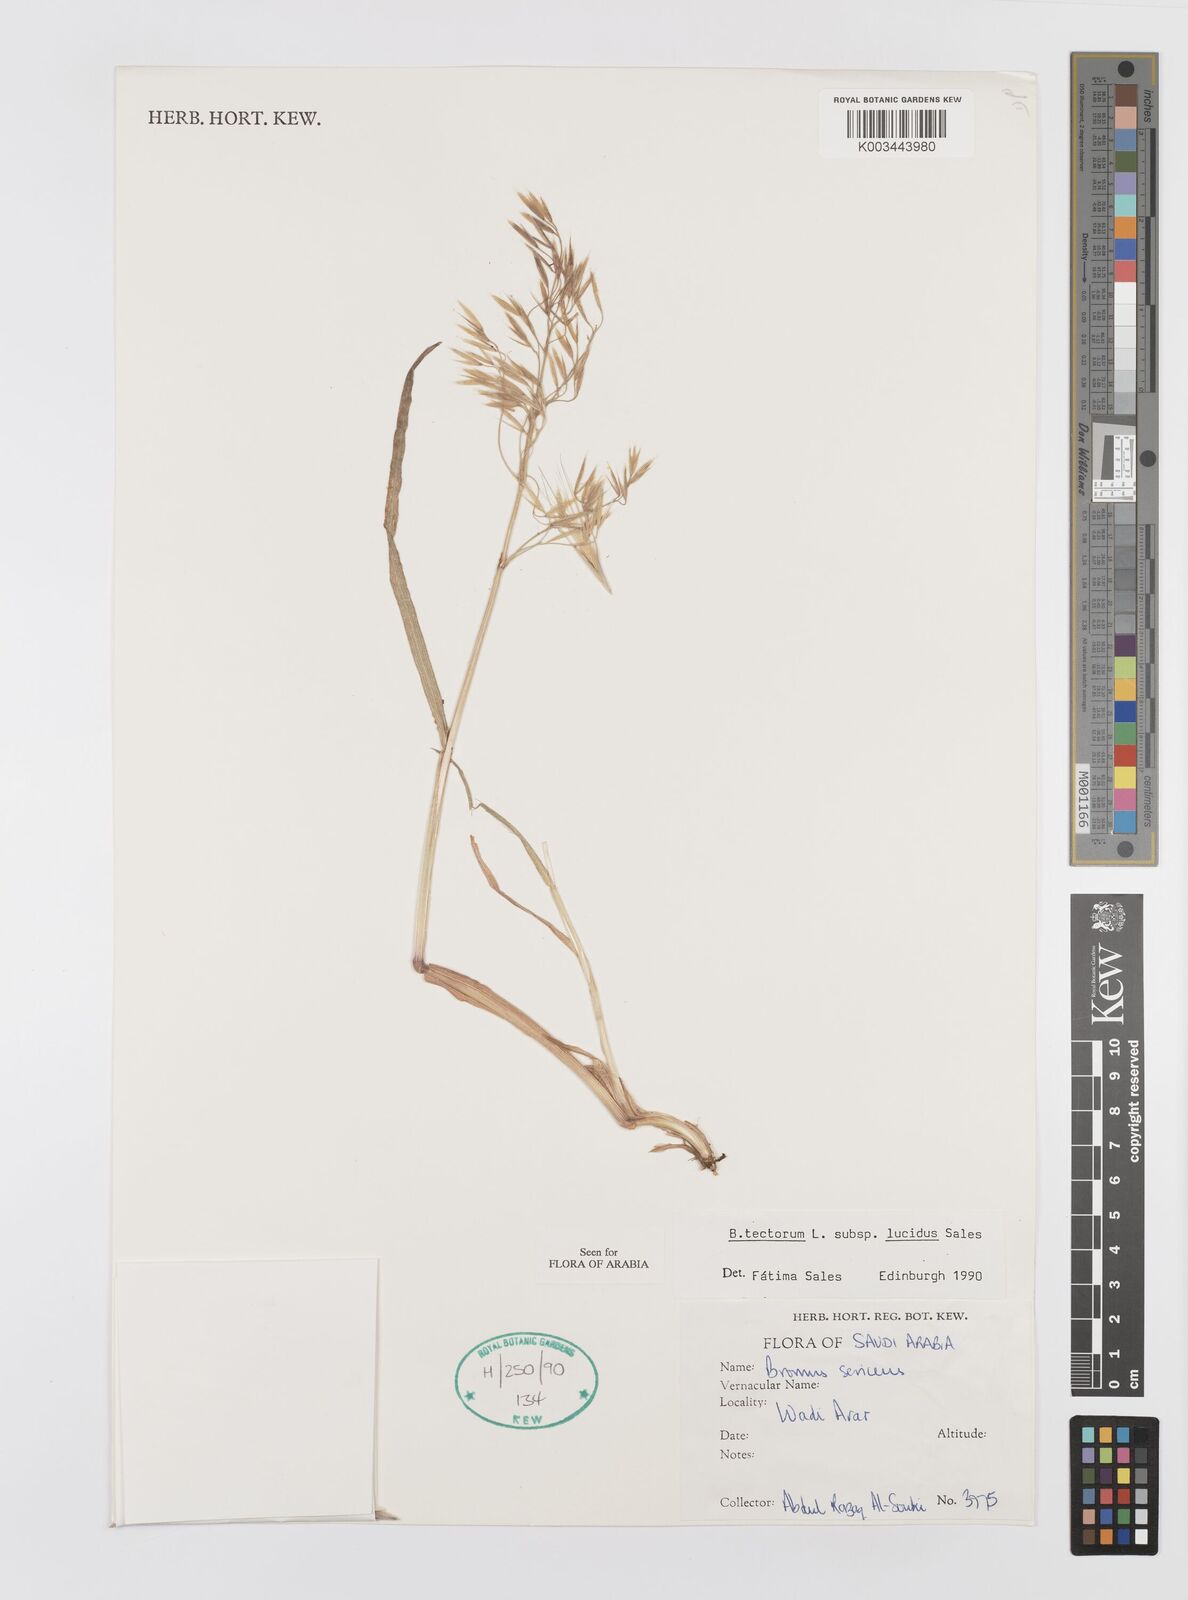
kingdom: Plantae
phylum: Tracheophyta
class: Liliopsida
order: Poales
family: Poaceae
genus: Bromus
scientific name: Bromus moeszii
